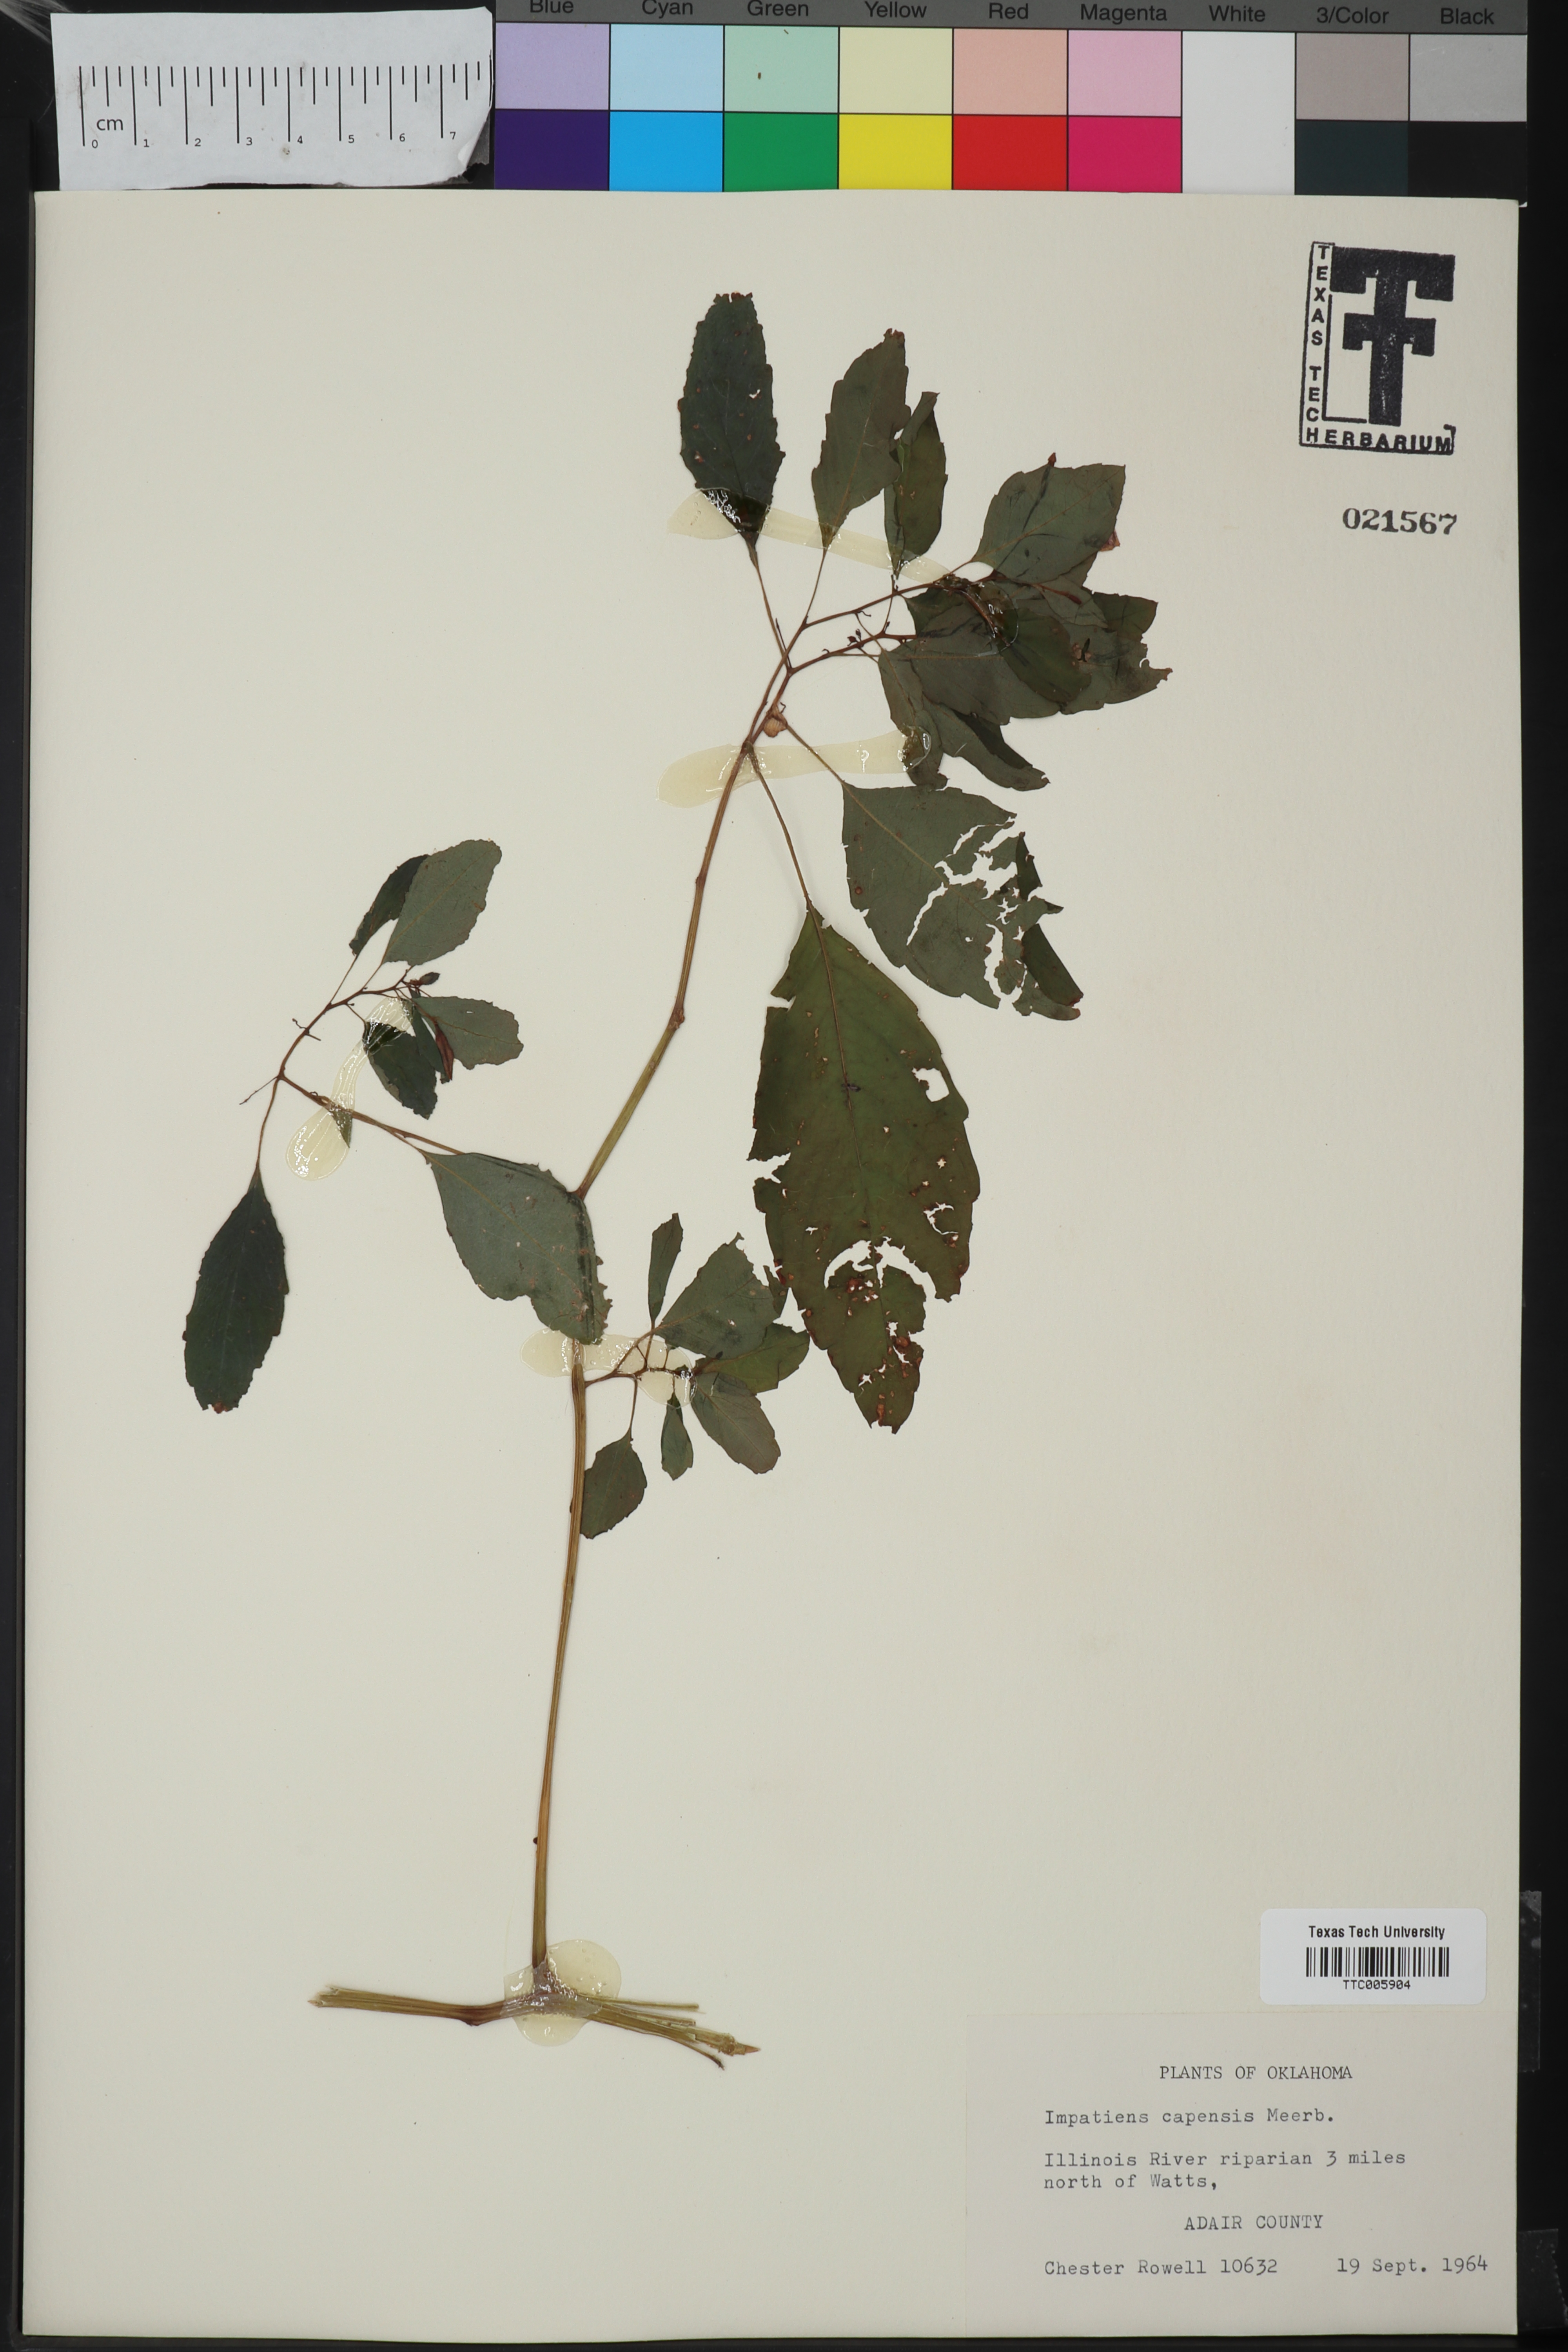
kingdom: Plantae
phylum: Tracheophyta
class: Magnoliopsida
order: Ericales
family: Balsaminaceae
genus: Impatiens
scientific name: Impatiens capensis
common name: Orange balsam
